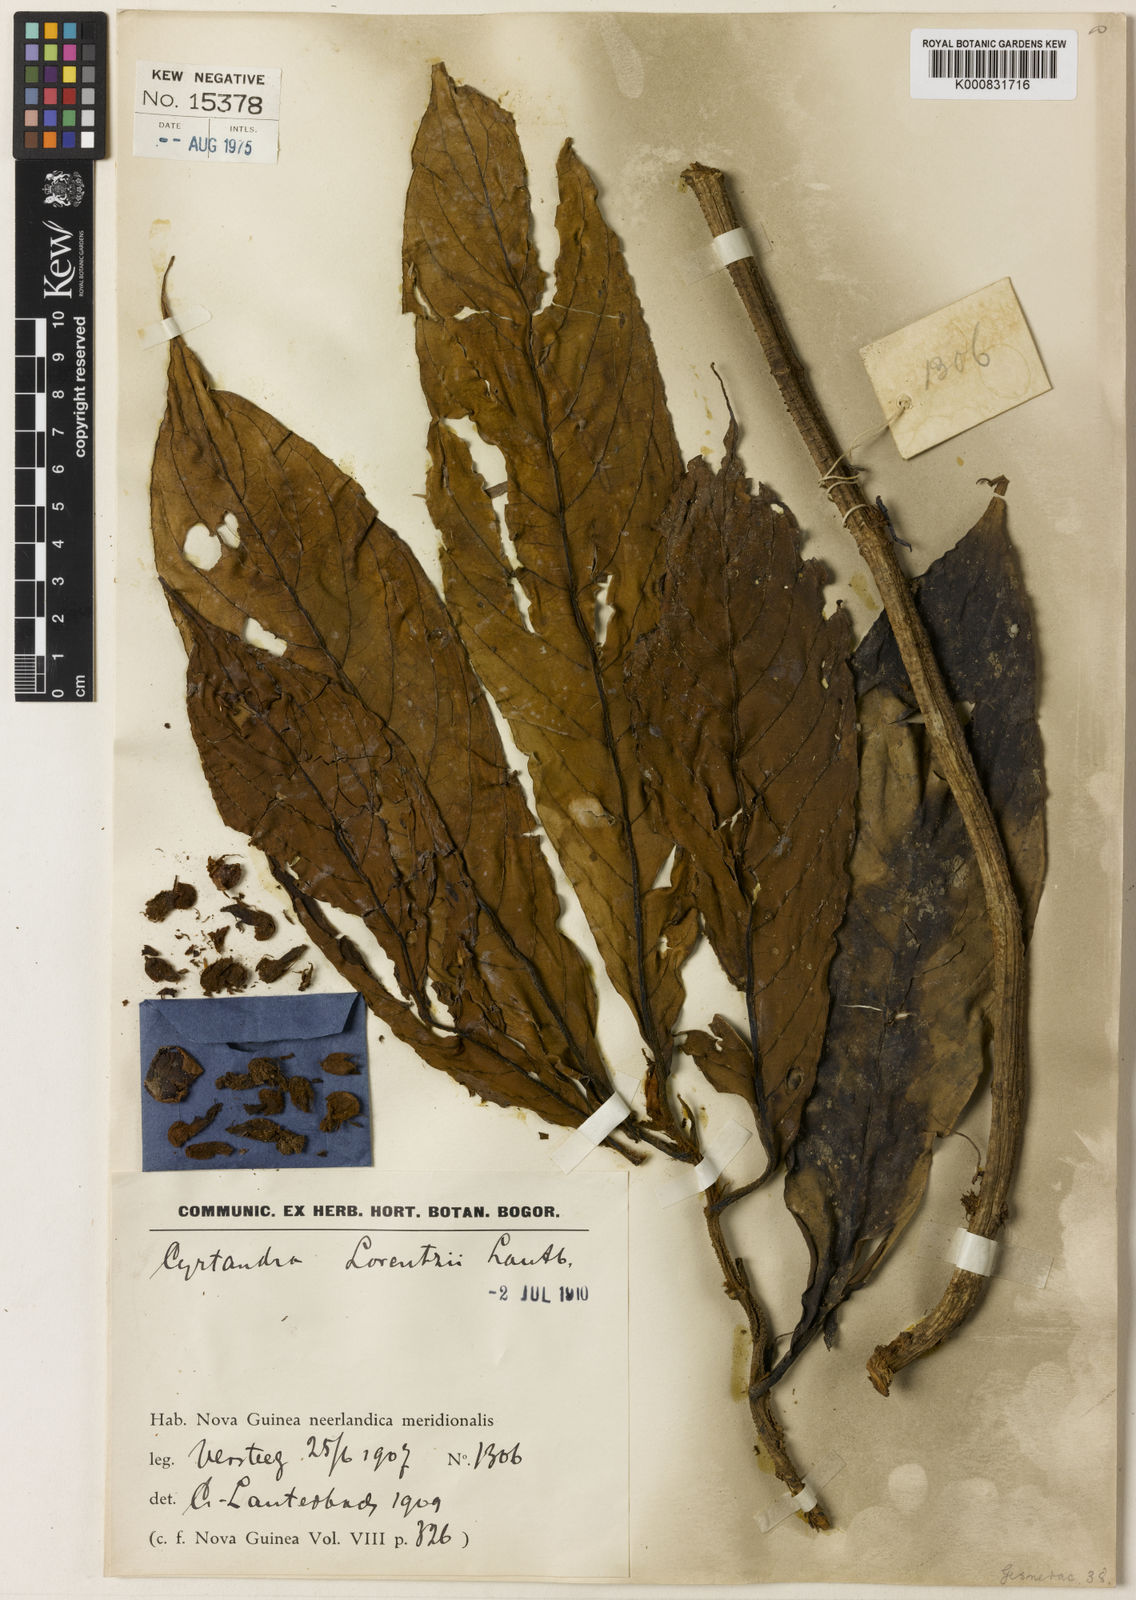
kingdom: Plantae
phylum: Tracheophyta
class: Magnoliopsida
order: Lamiales
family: Gesneriaceae
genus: Cyrtandra
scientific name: Cyrtandra lorentzii
